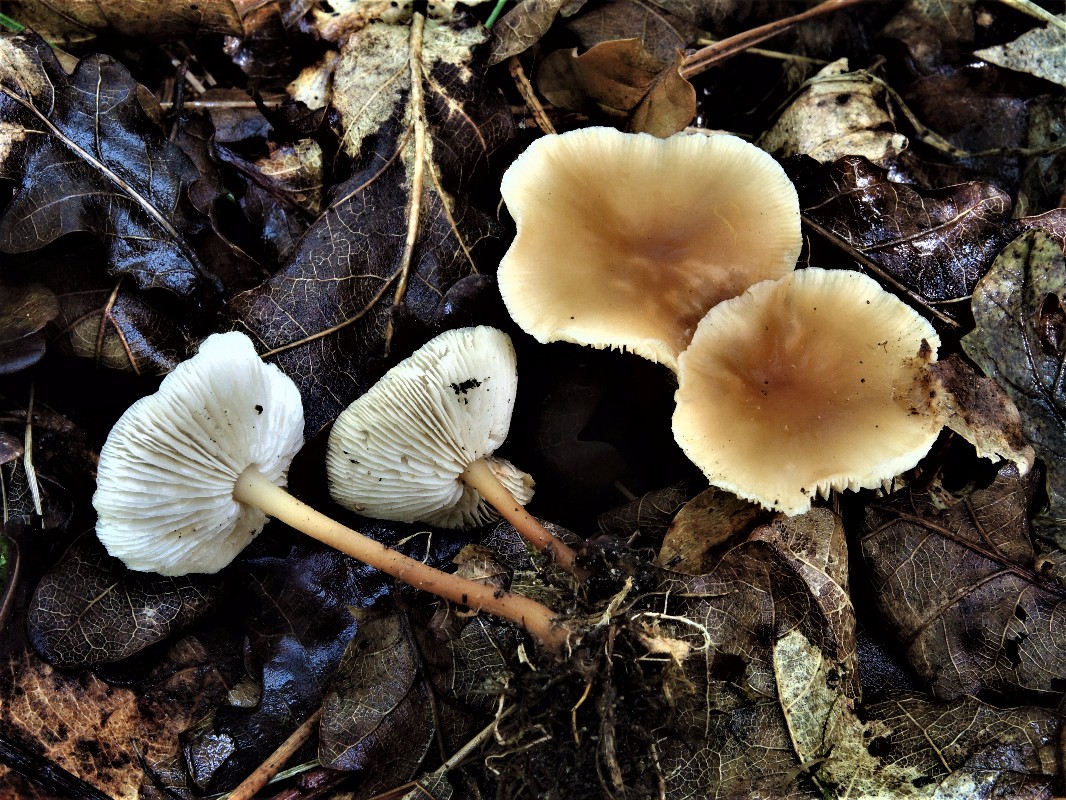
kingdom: Fungi
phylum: Basidiomycota
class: Agaricomycetes
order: Agaricales
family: Omphalotaceae
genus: Gymnopus
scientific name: Gymnopus dryophilus
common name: løv-fladhat
